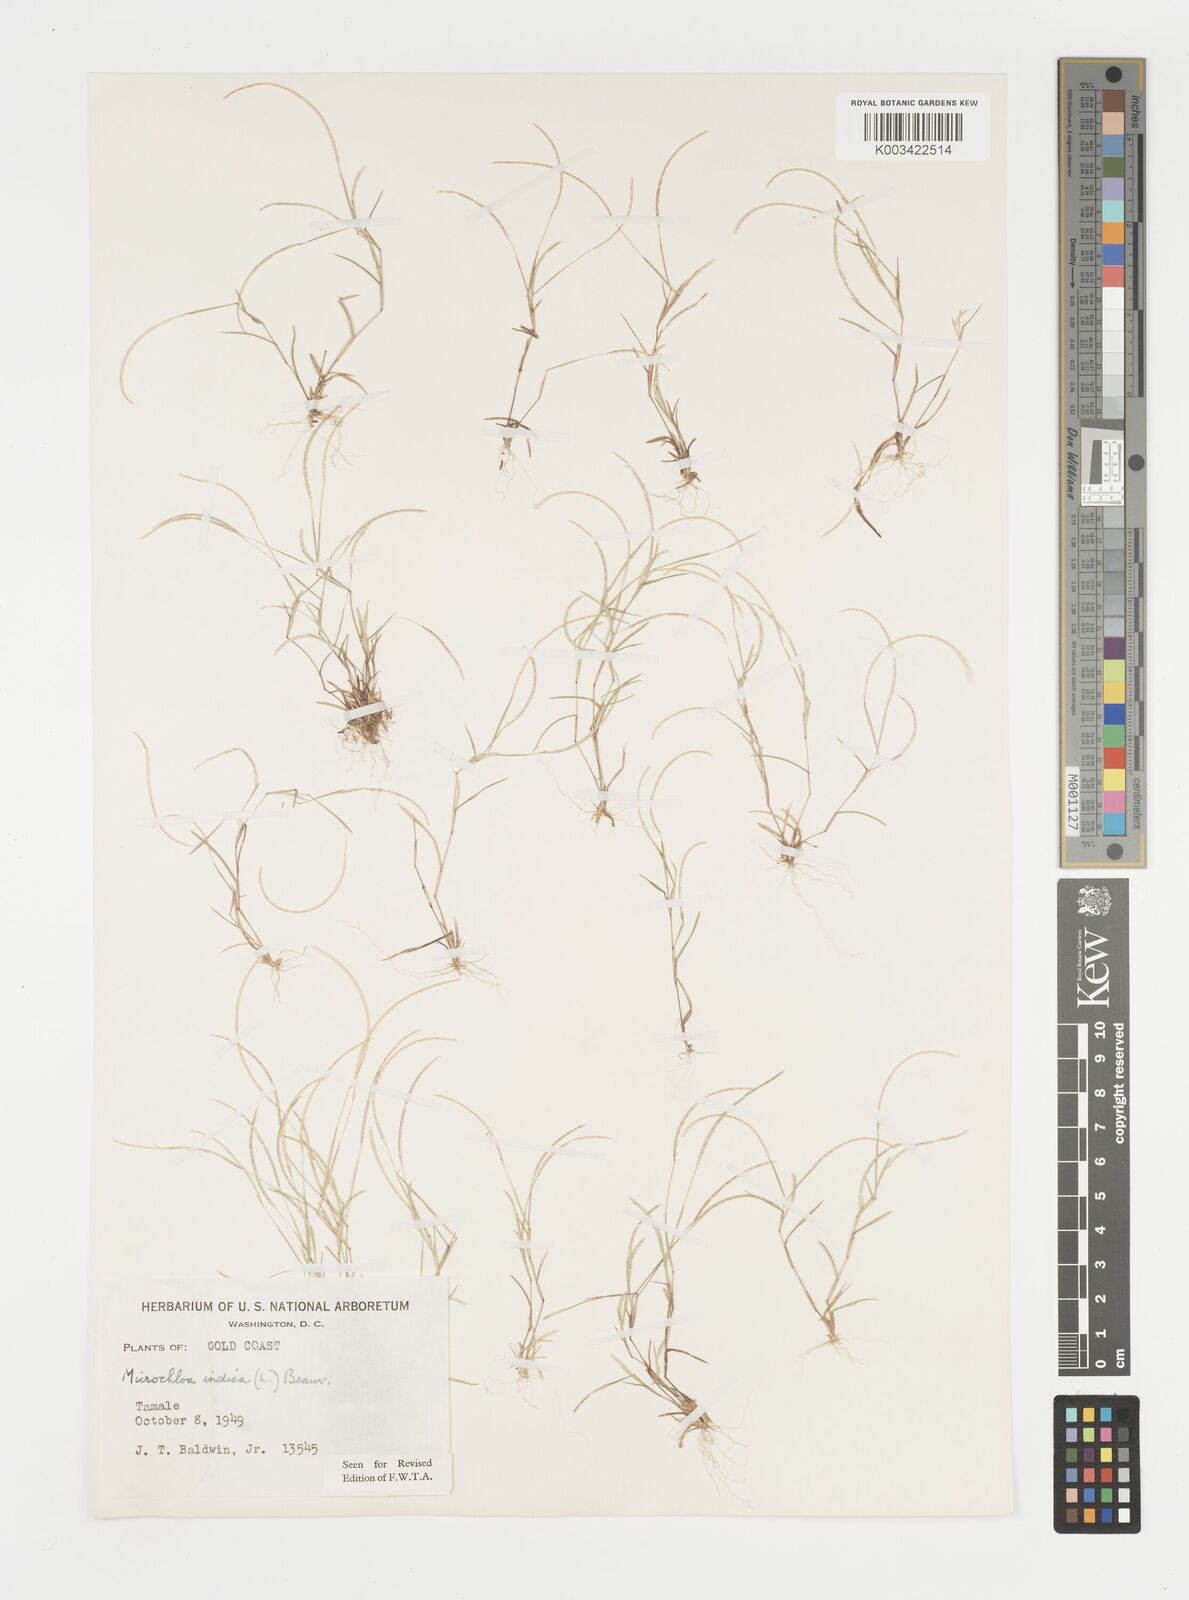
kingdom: Plantae
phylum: Tracheophyta
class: Liliopsida
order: Poales
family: Poaceae
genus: Microchloa
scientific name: Microchloa indica
